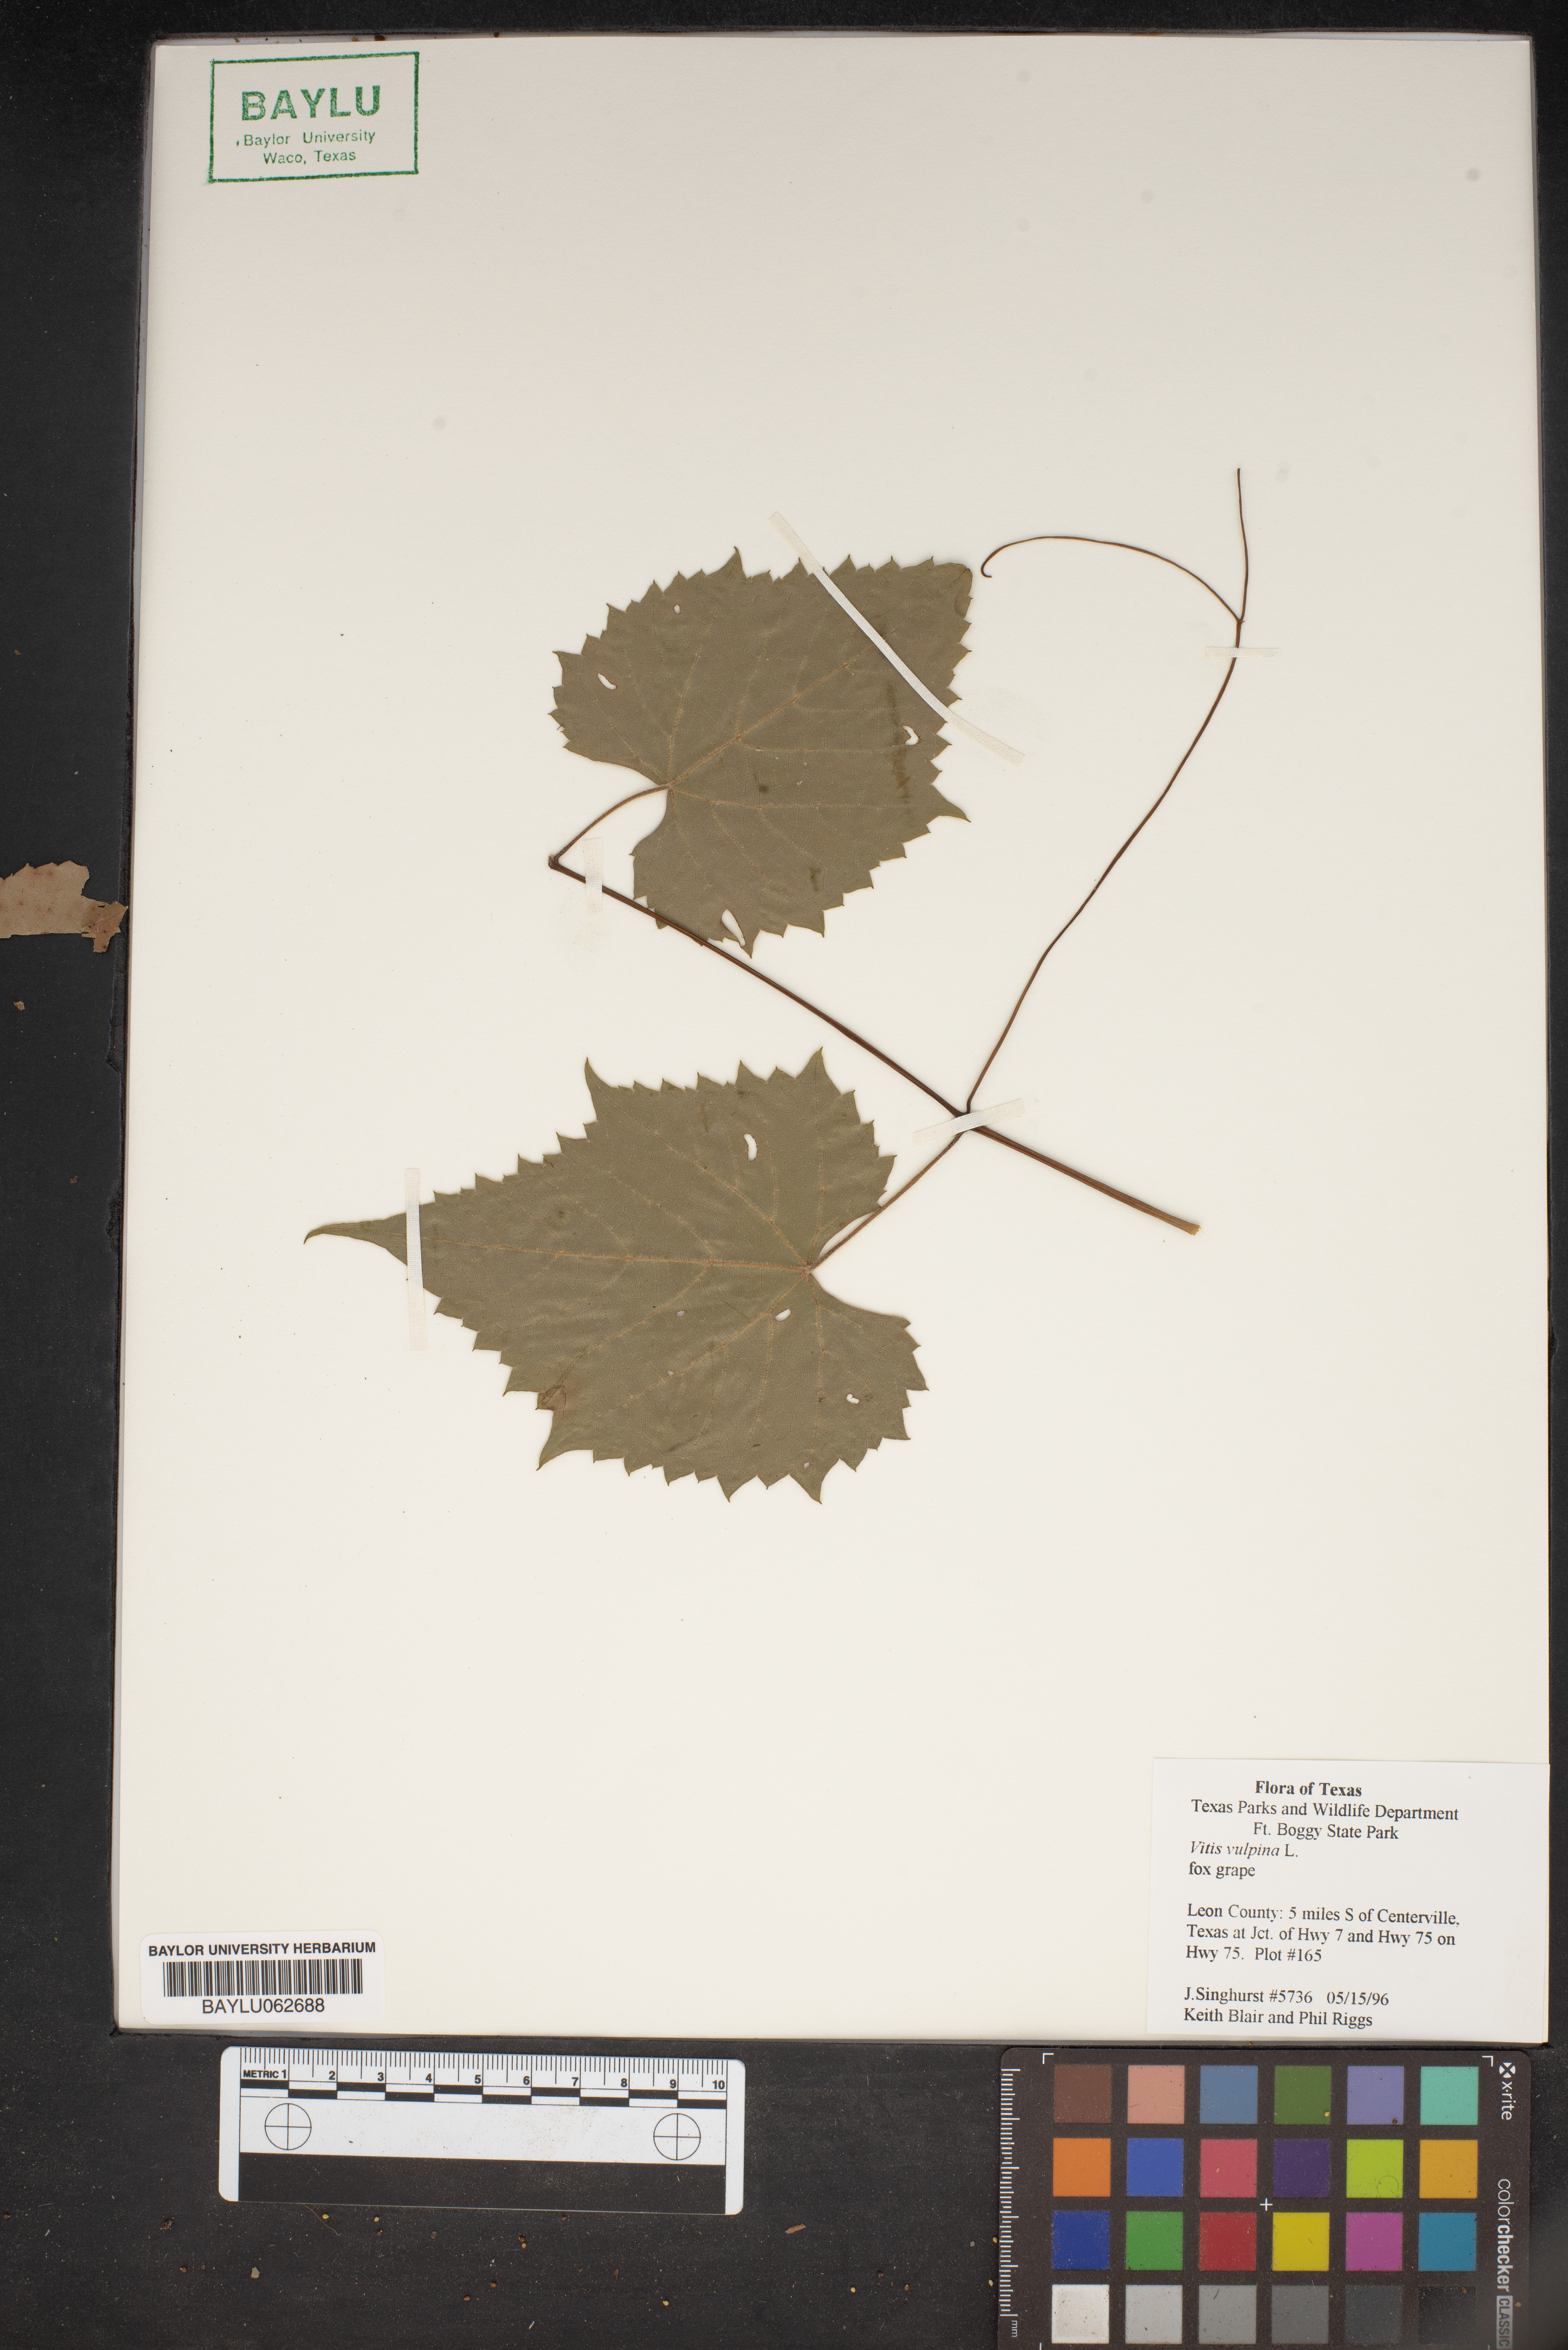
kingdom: Plantae
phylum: Tracheophyta
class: Magnoliopsida
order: Vitales
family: Vitaceae
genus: Vitis
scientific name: Vitis vulpina
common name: Frost grape
